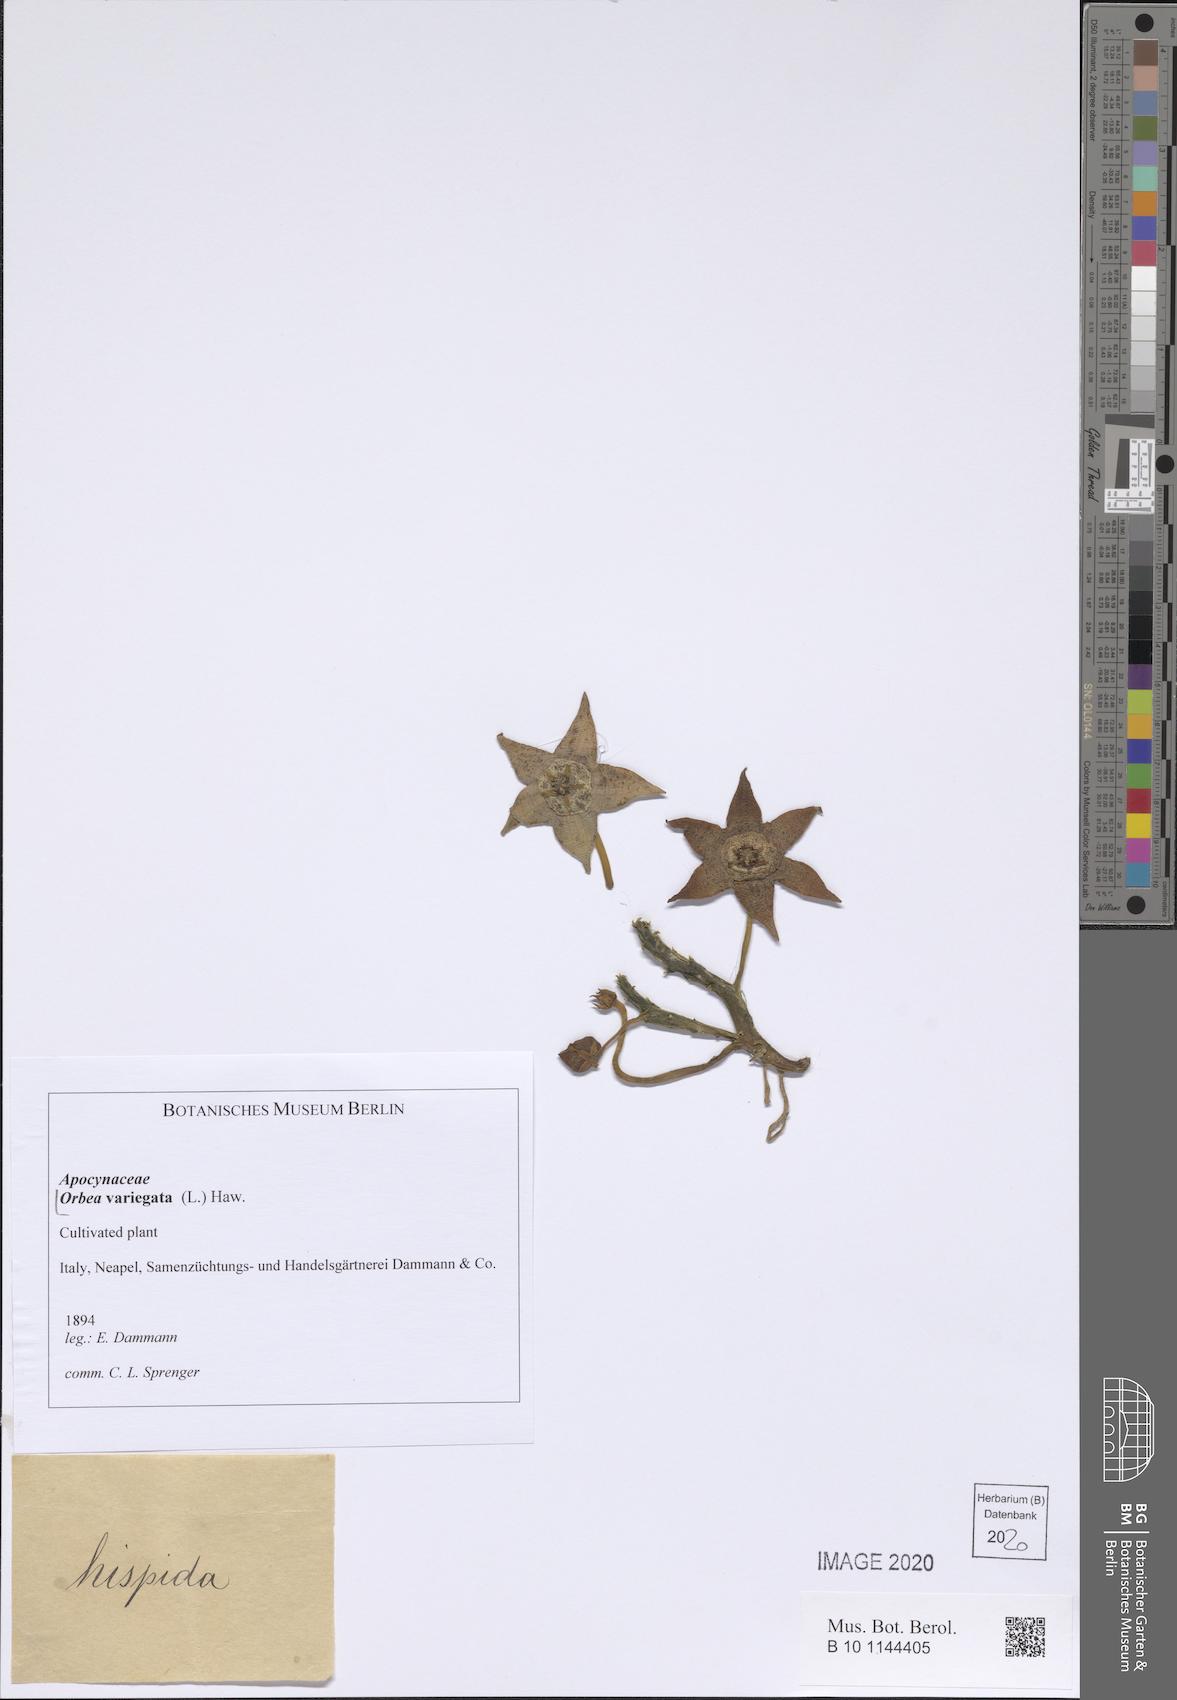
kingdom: Plantae
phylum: Tracheophyta
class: Magnoliopsida
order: Gentianales
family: Apocynaceae
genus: Ceropegia
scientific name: Ceropegia mixta
